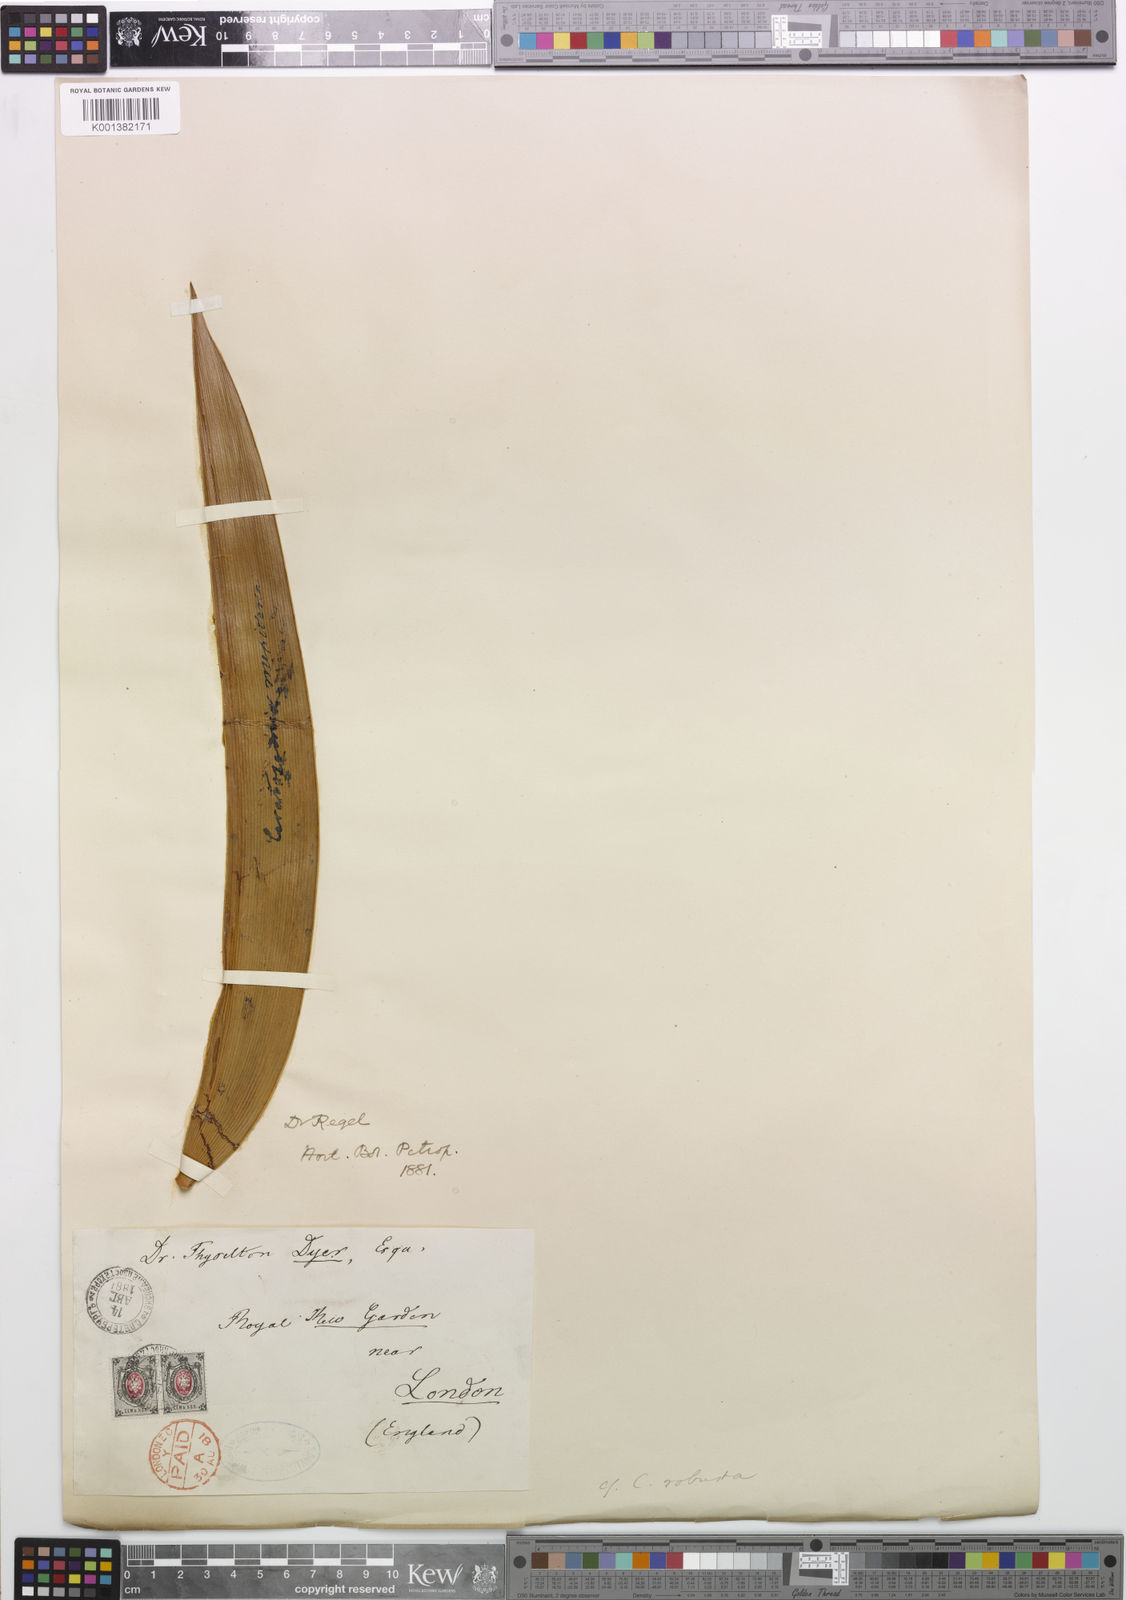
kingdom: Plantae
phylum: Tracheophyta
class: Cycadopsida
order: Cycadales
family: Zamiaceae
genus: Ceratozamia
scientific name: Ceratozamia robusta
